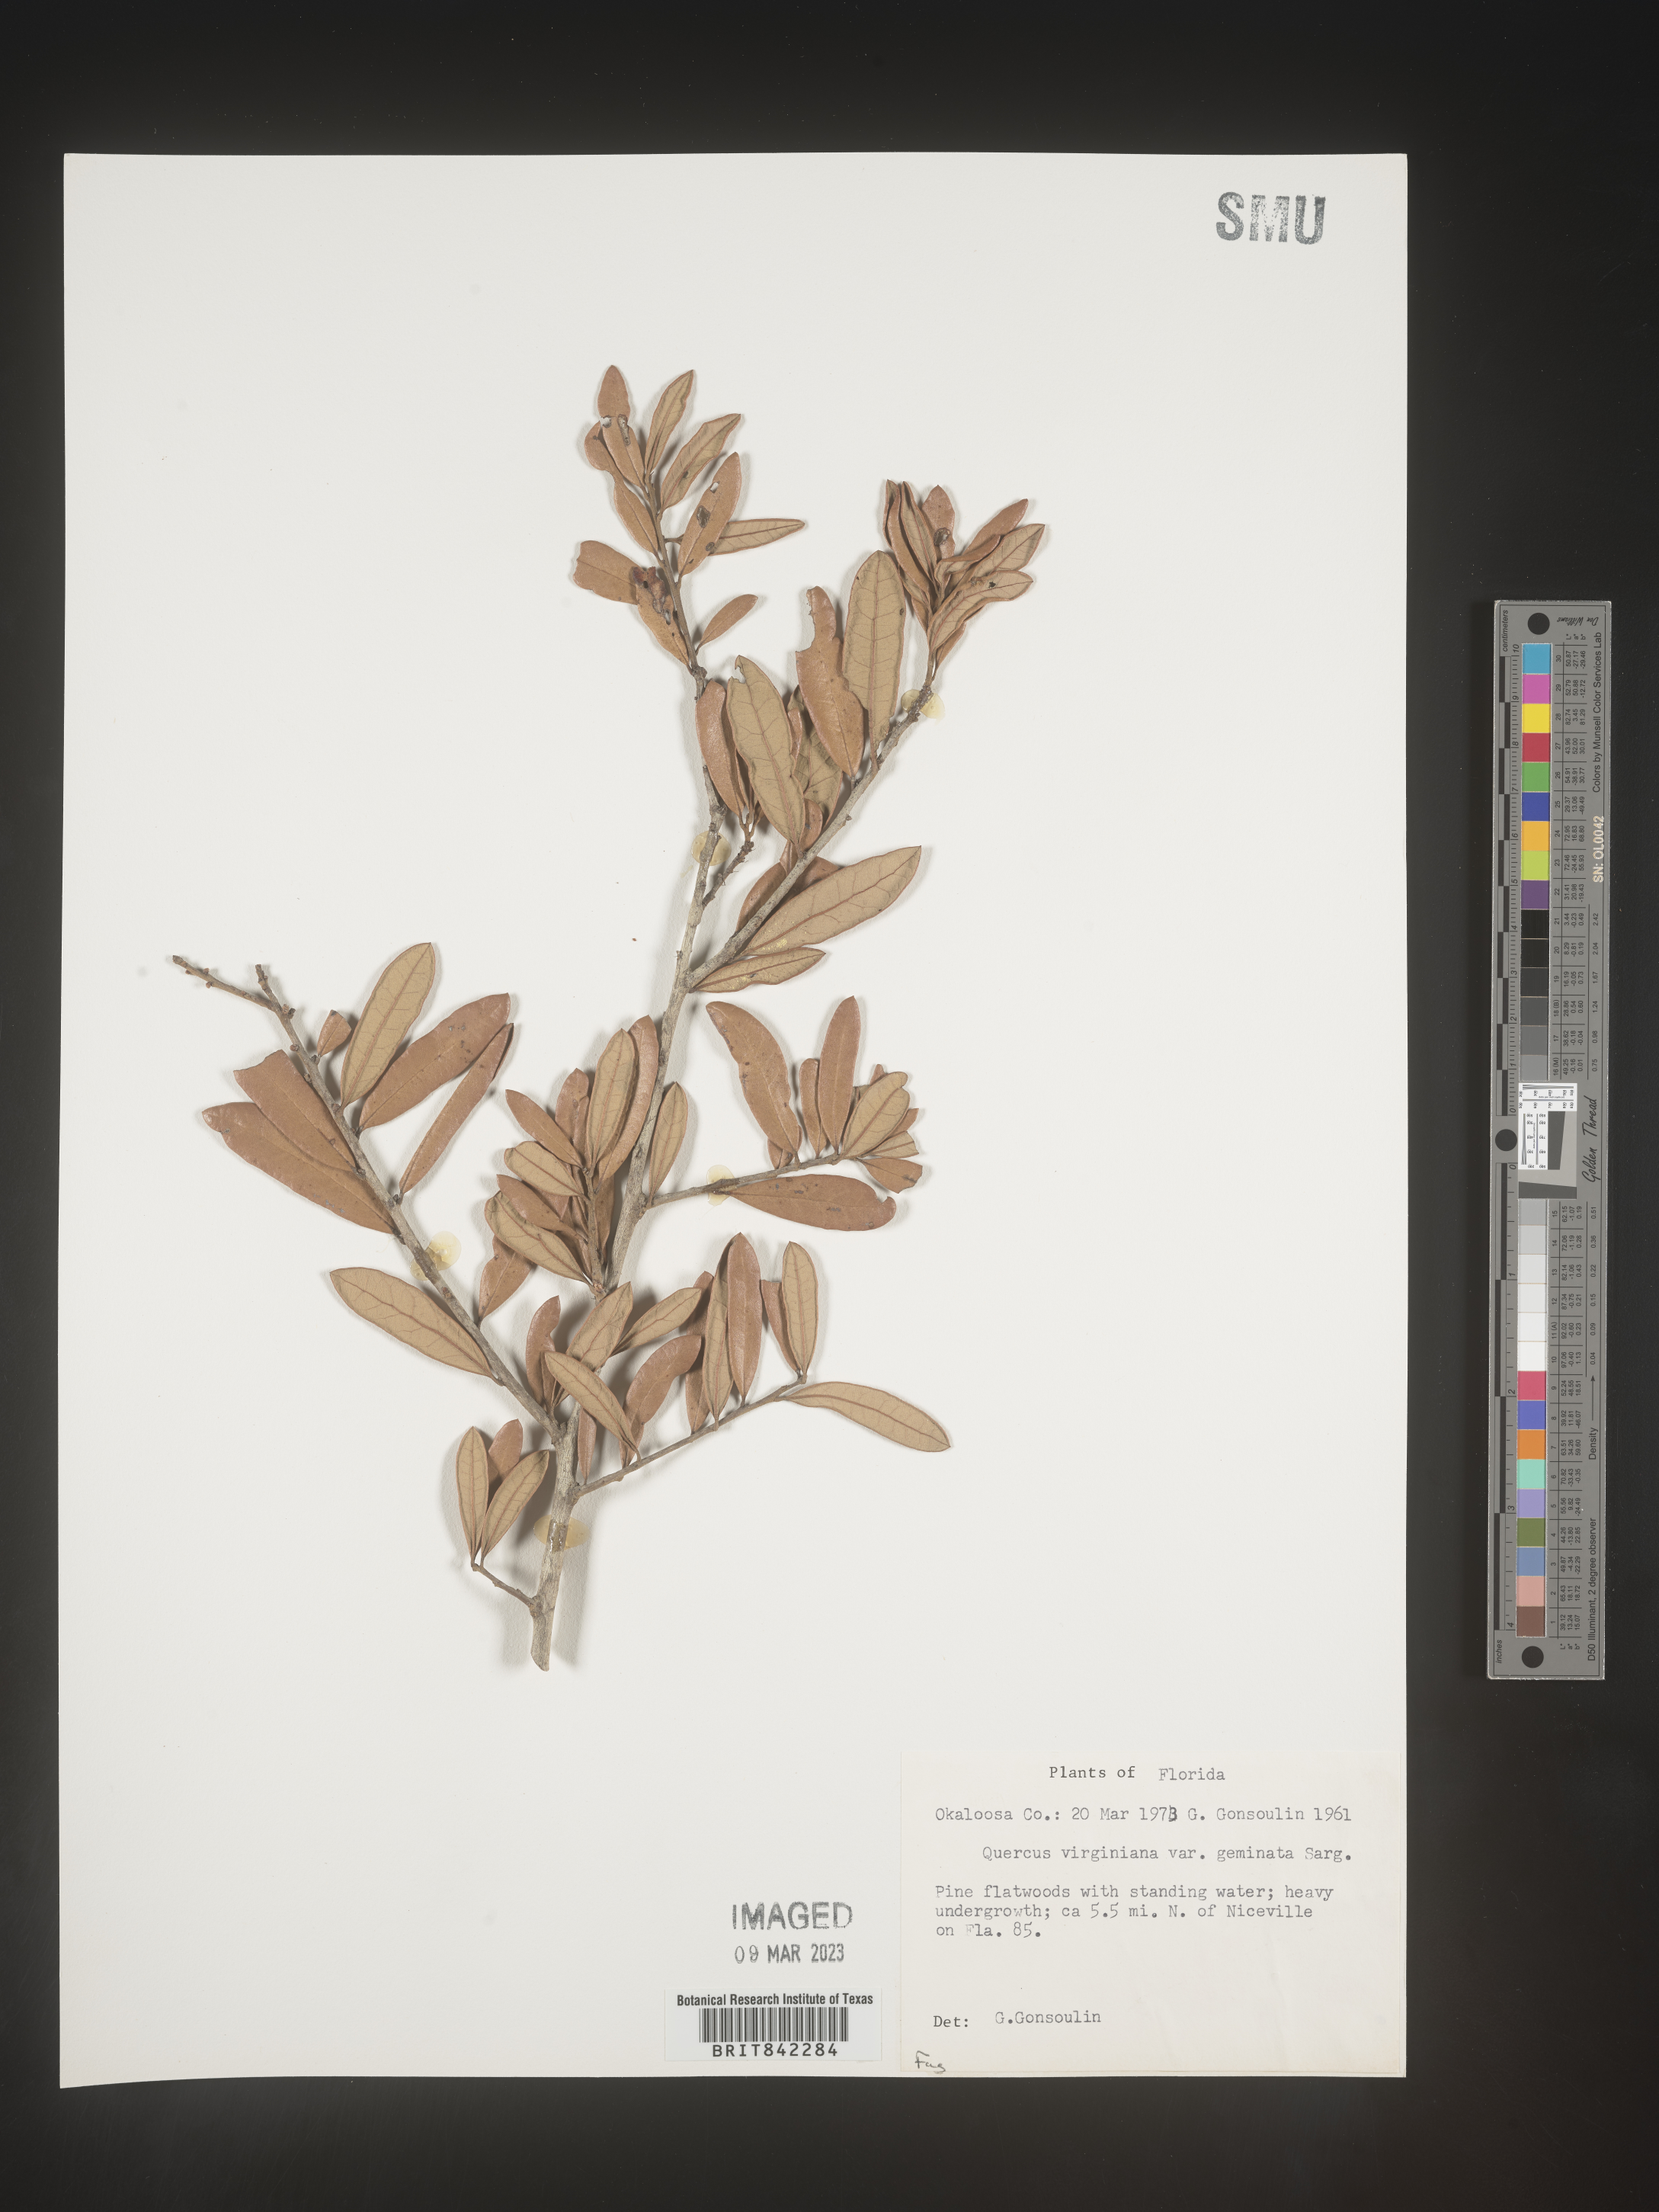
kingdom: Plantae
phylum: Tracheophyta
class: Magnoliopsida
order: Fagales
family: Fagaceae
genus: Quercus
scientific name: Quercus virginiana
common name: Southern live oak
